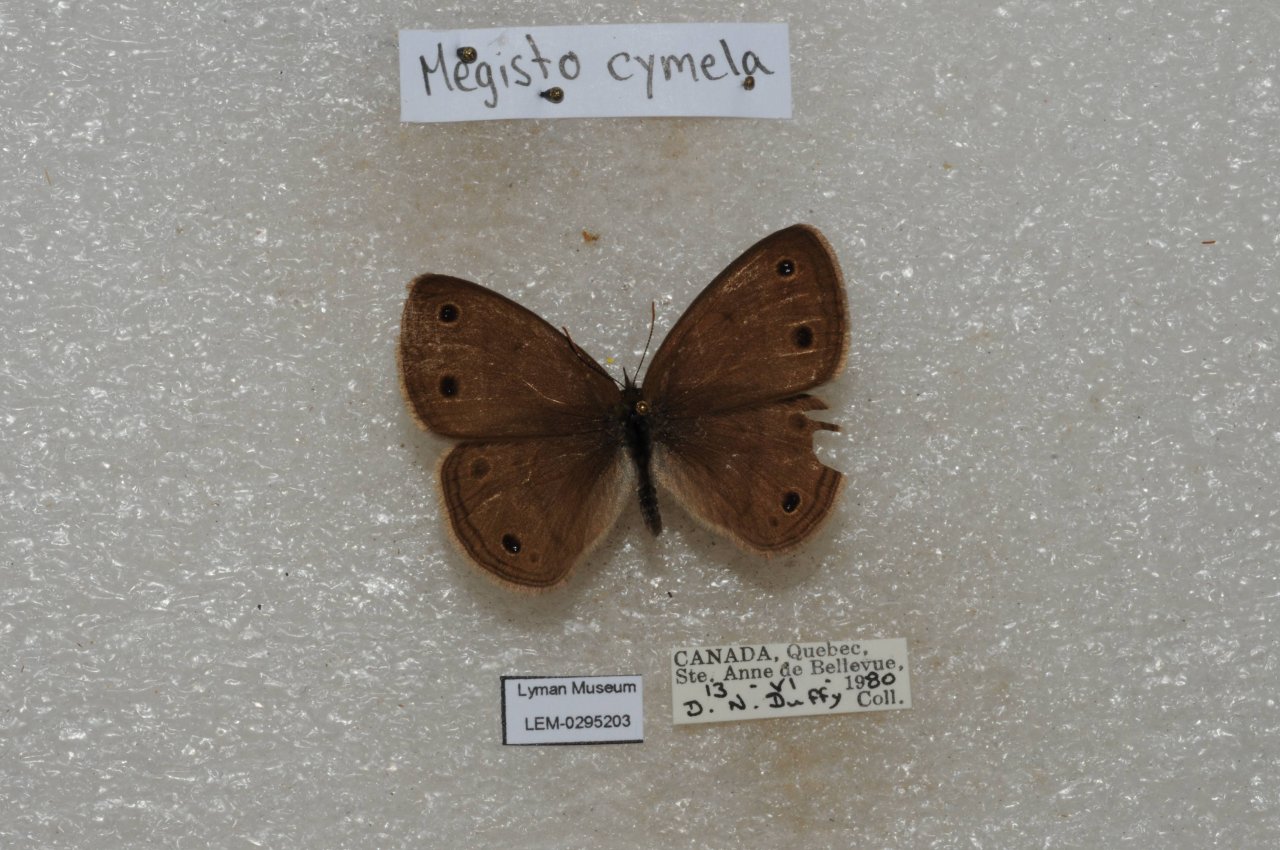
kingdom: Animalia
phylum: Arthropoda
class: Insecta
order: Lepidoptera
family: Nymphalidae
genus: Euptychia
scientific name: Euptychia cymela
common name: Little Wood Satyr
